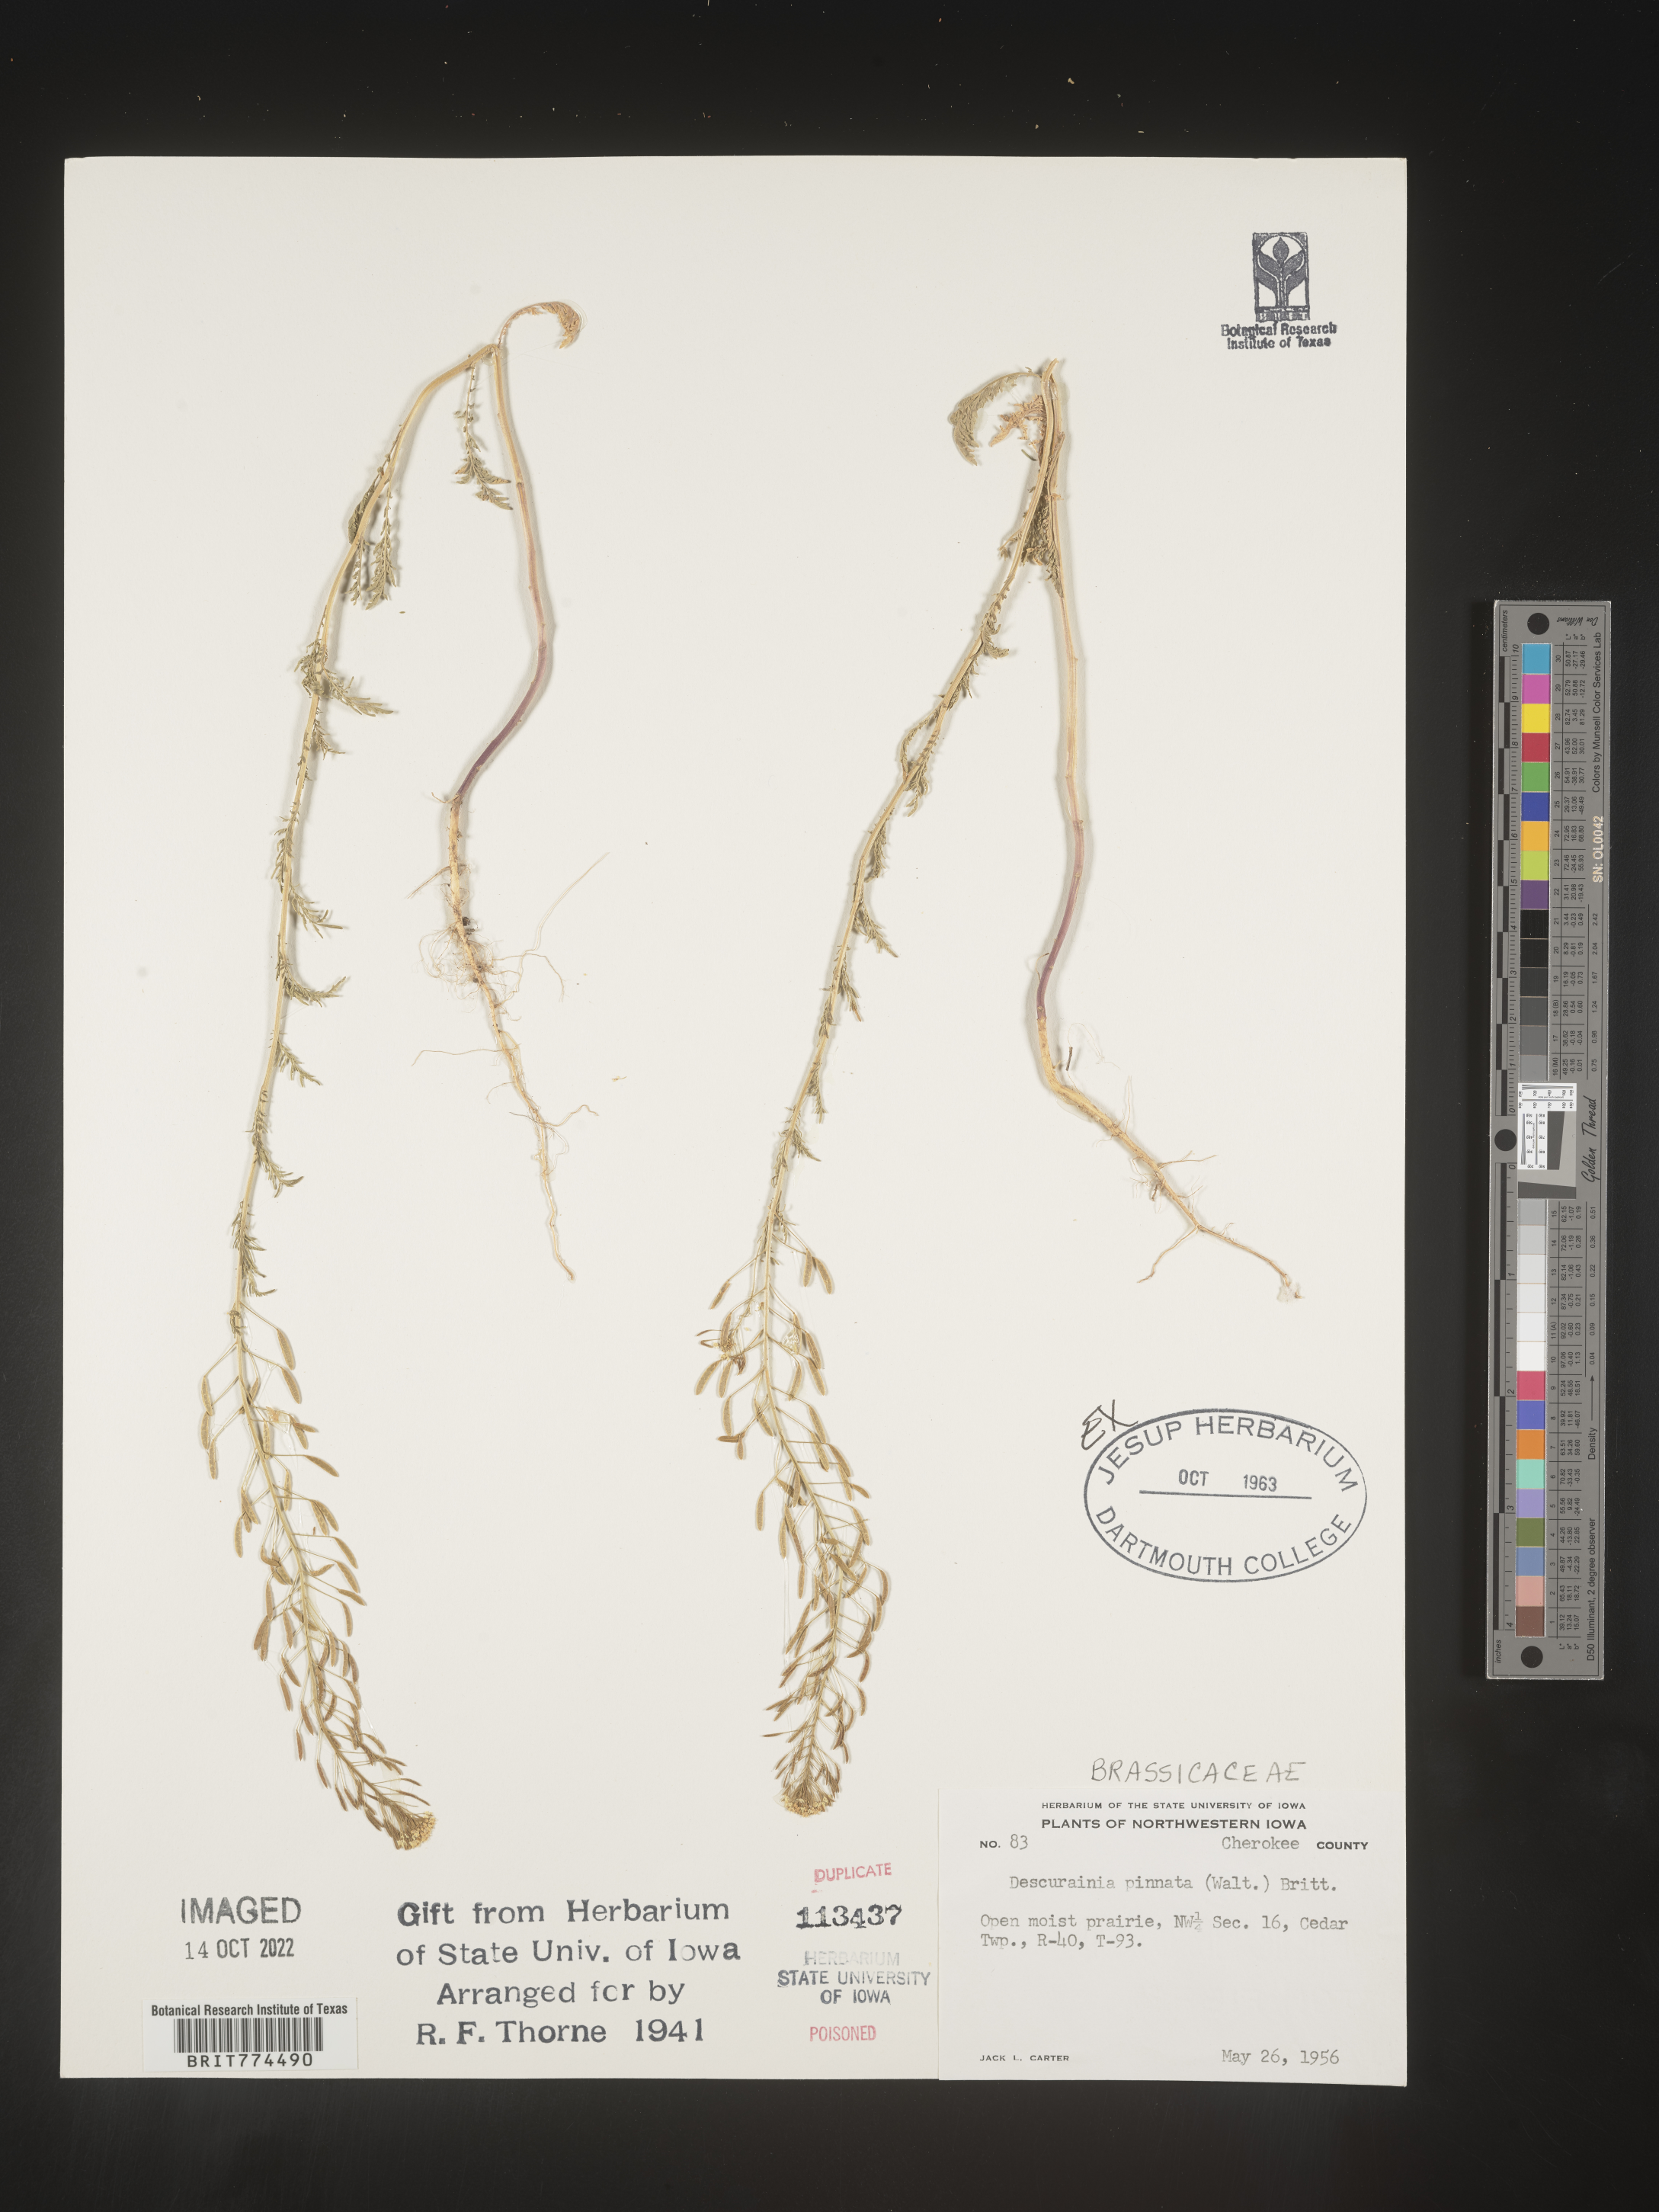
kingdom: Plantae
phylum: Tracheophyta
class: Magnoliopsida
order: Brassicales
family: Brassicaceae
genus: Descurainia
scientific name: Descurainia pinnata
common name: Western tansy mustard
